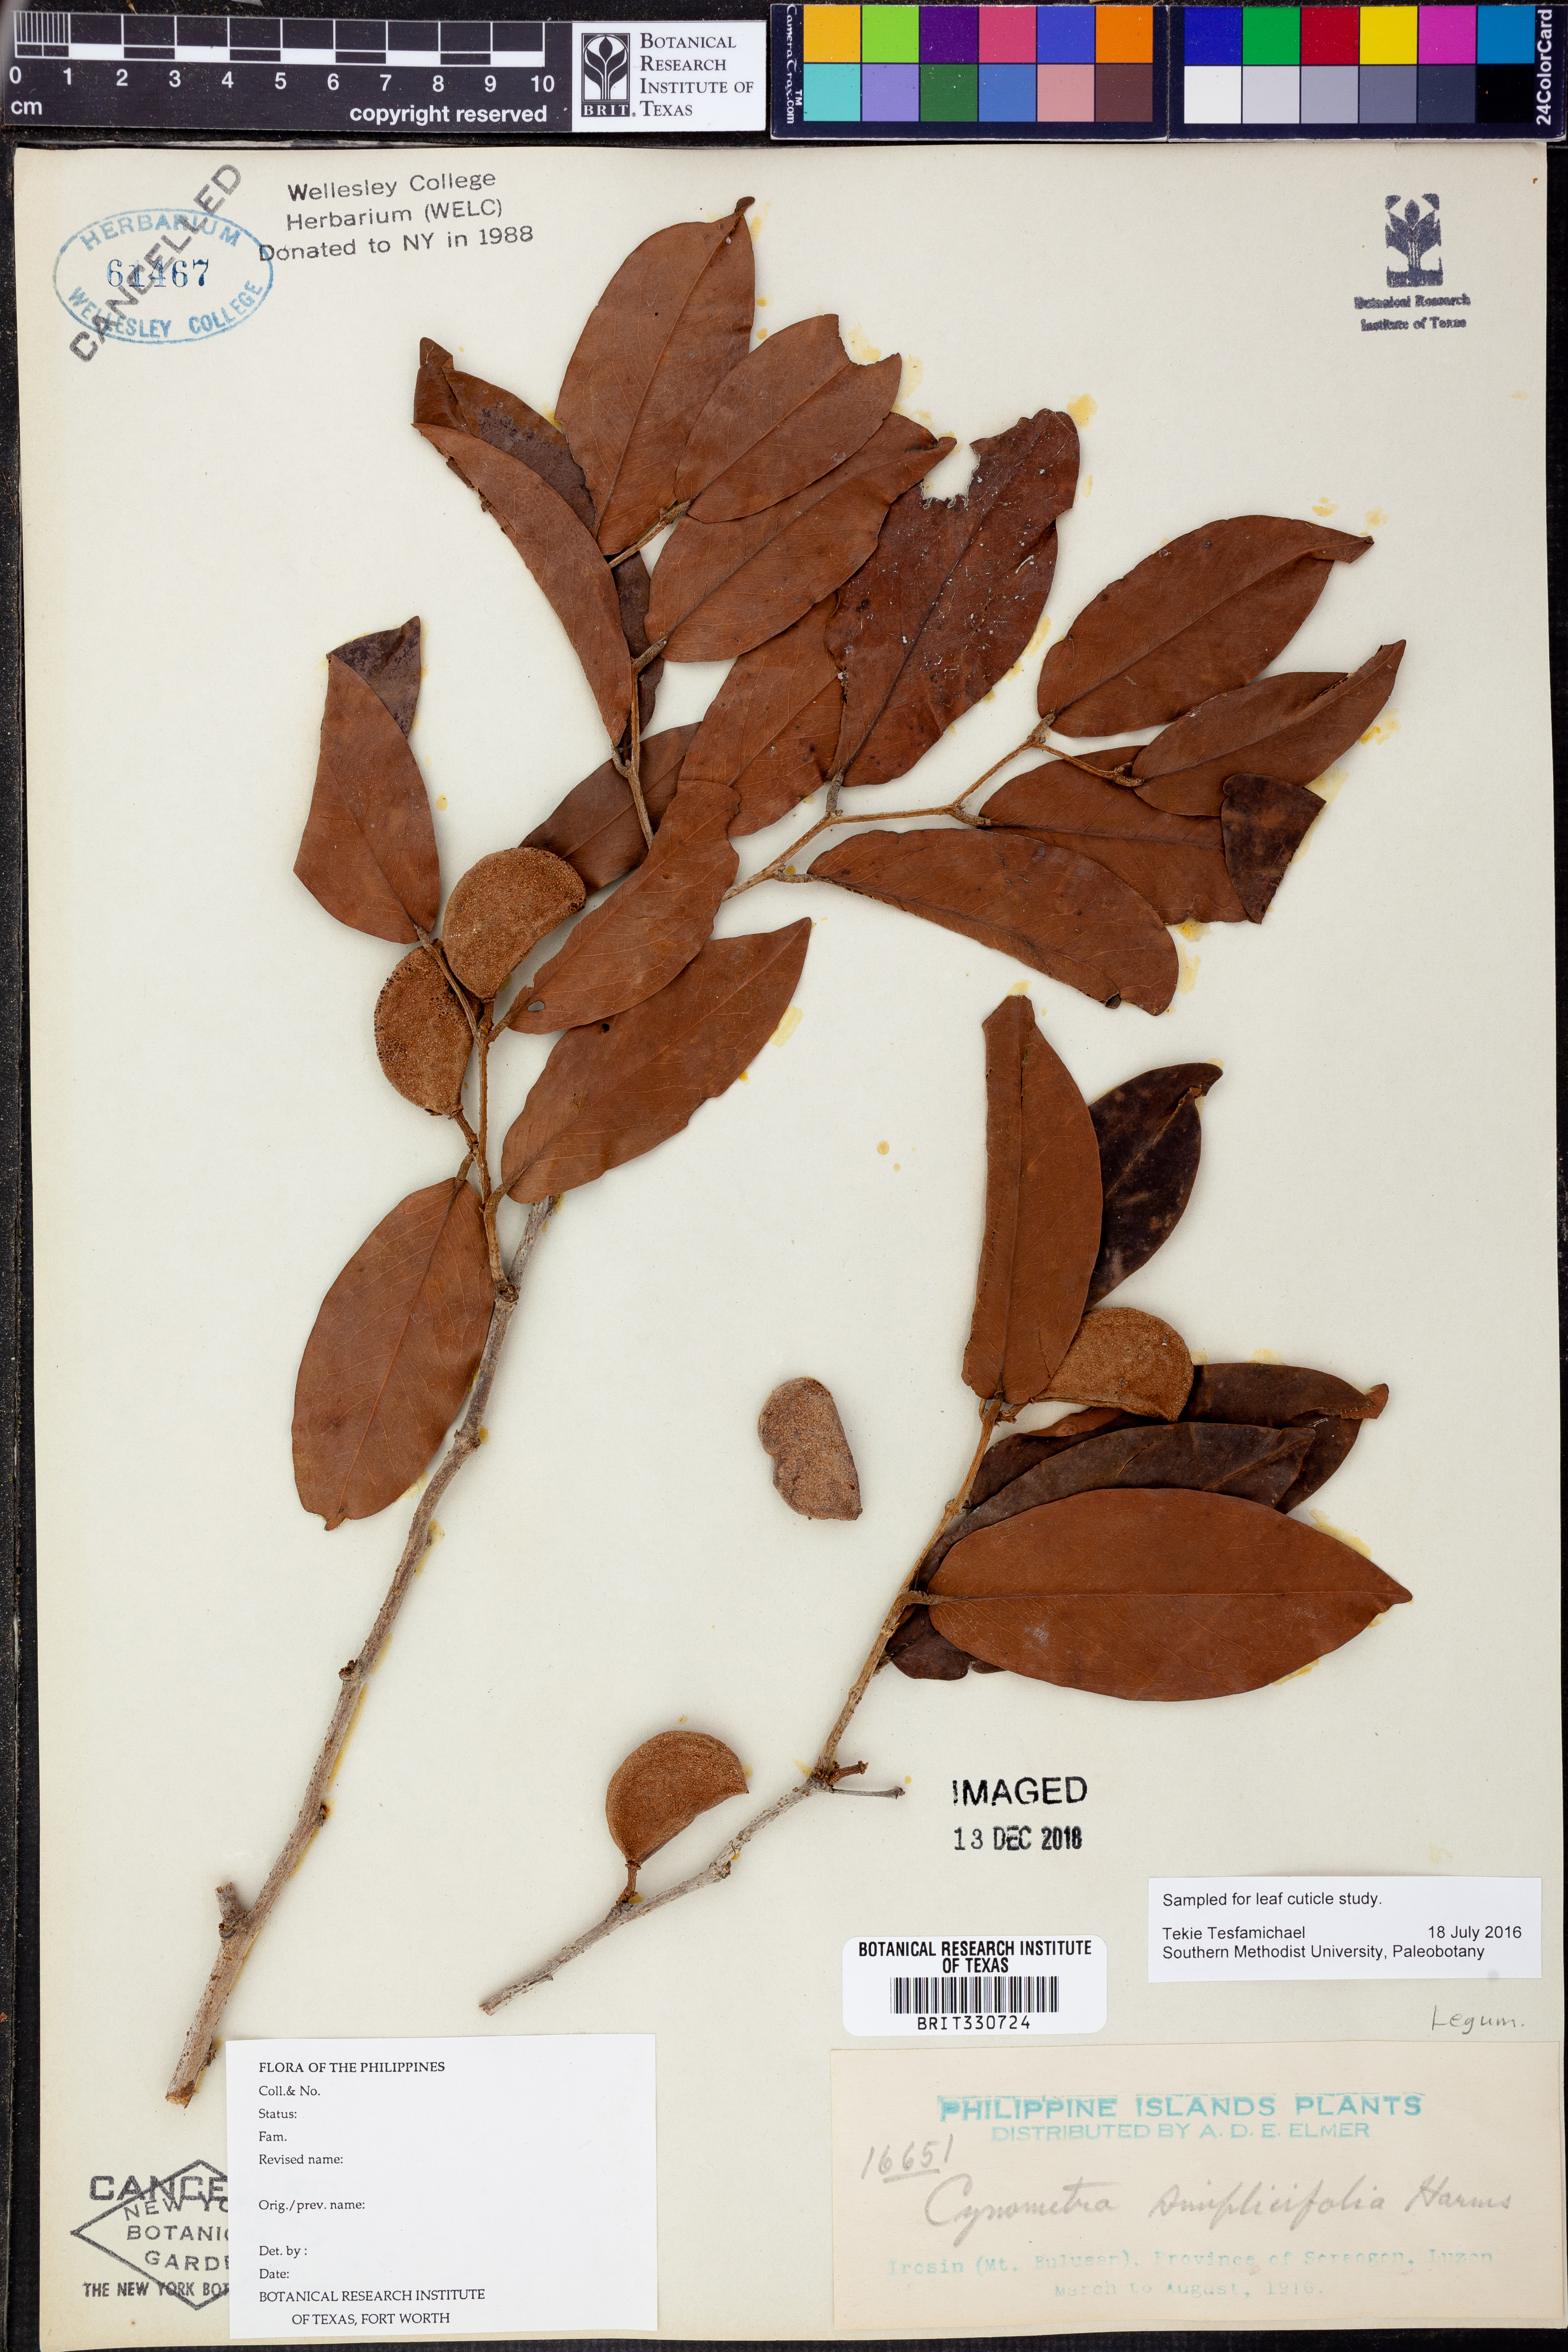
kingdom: Plantae
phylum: Tracheophyta
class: Magnoliopsida
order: Fabales
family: Fabaceae
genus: Cynometra
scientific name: Cynometra simplicifolia
